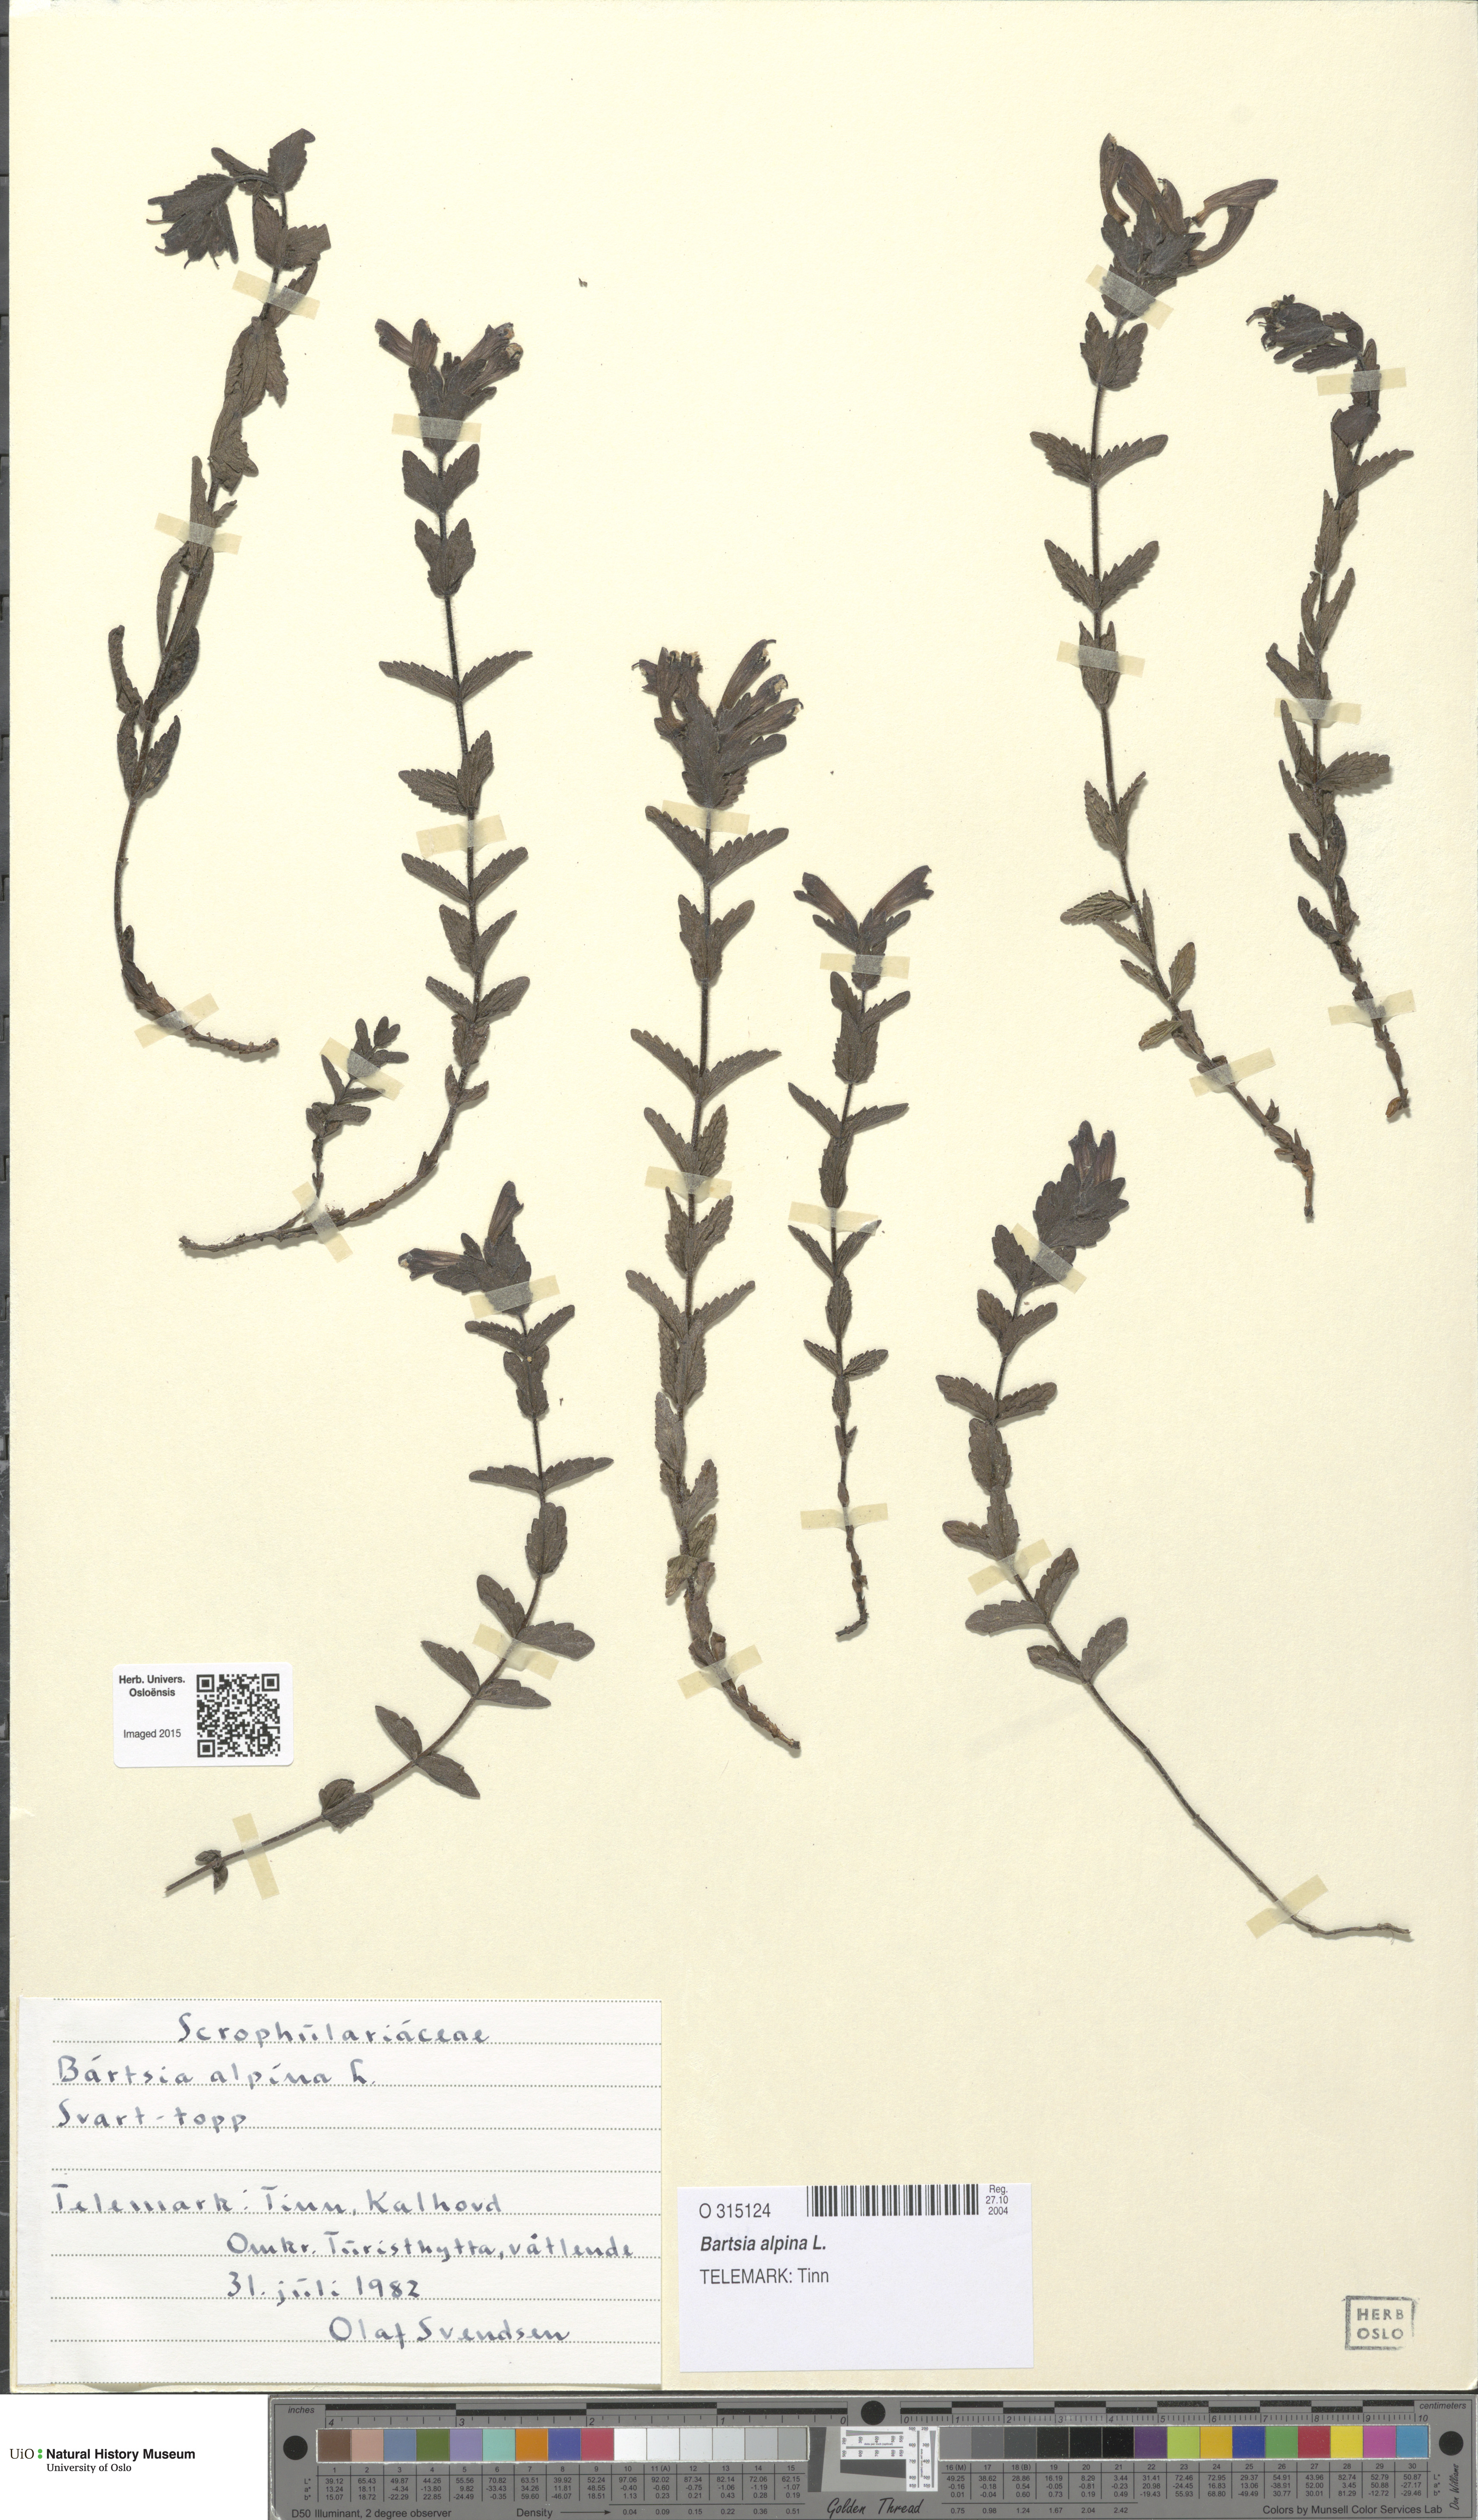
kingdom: Plantae
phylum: Tracheophyta
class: Magnoliopsida
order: Lamiales
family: Orobanchaceae
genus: Bartsia
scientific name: Bartsia alpina
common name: Alpine bartsia
